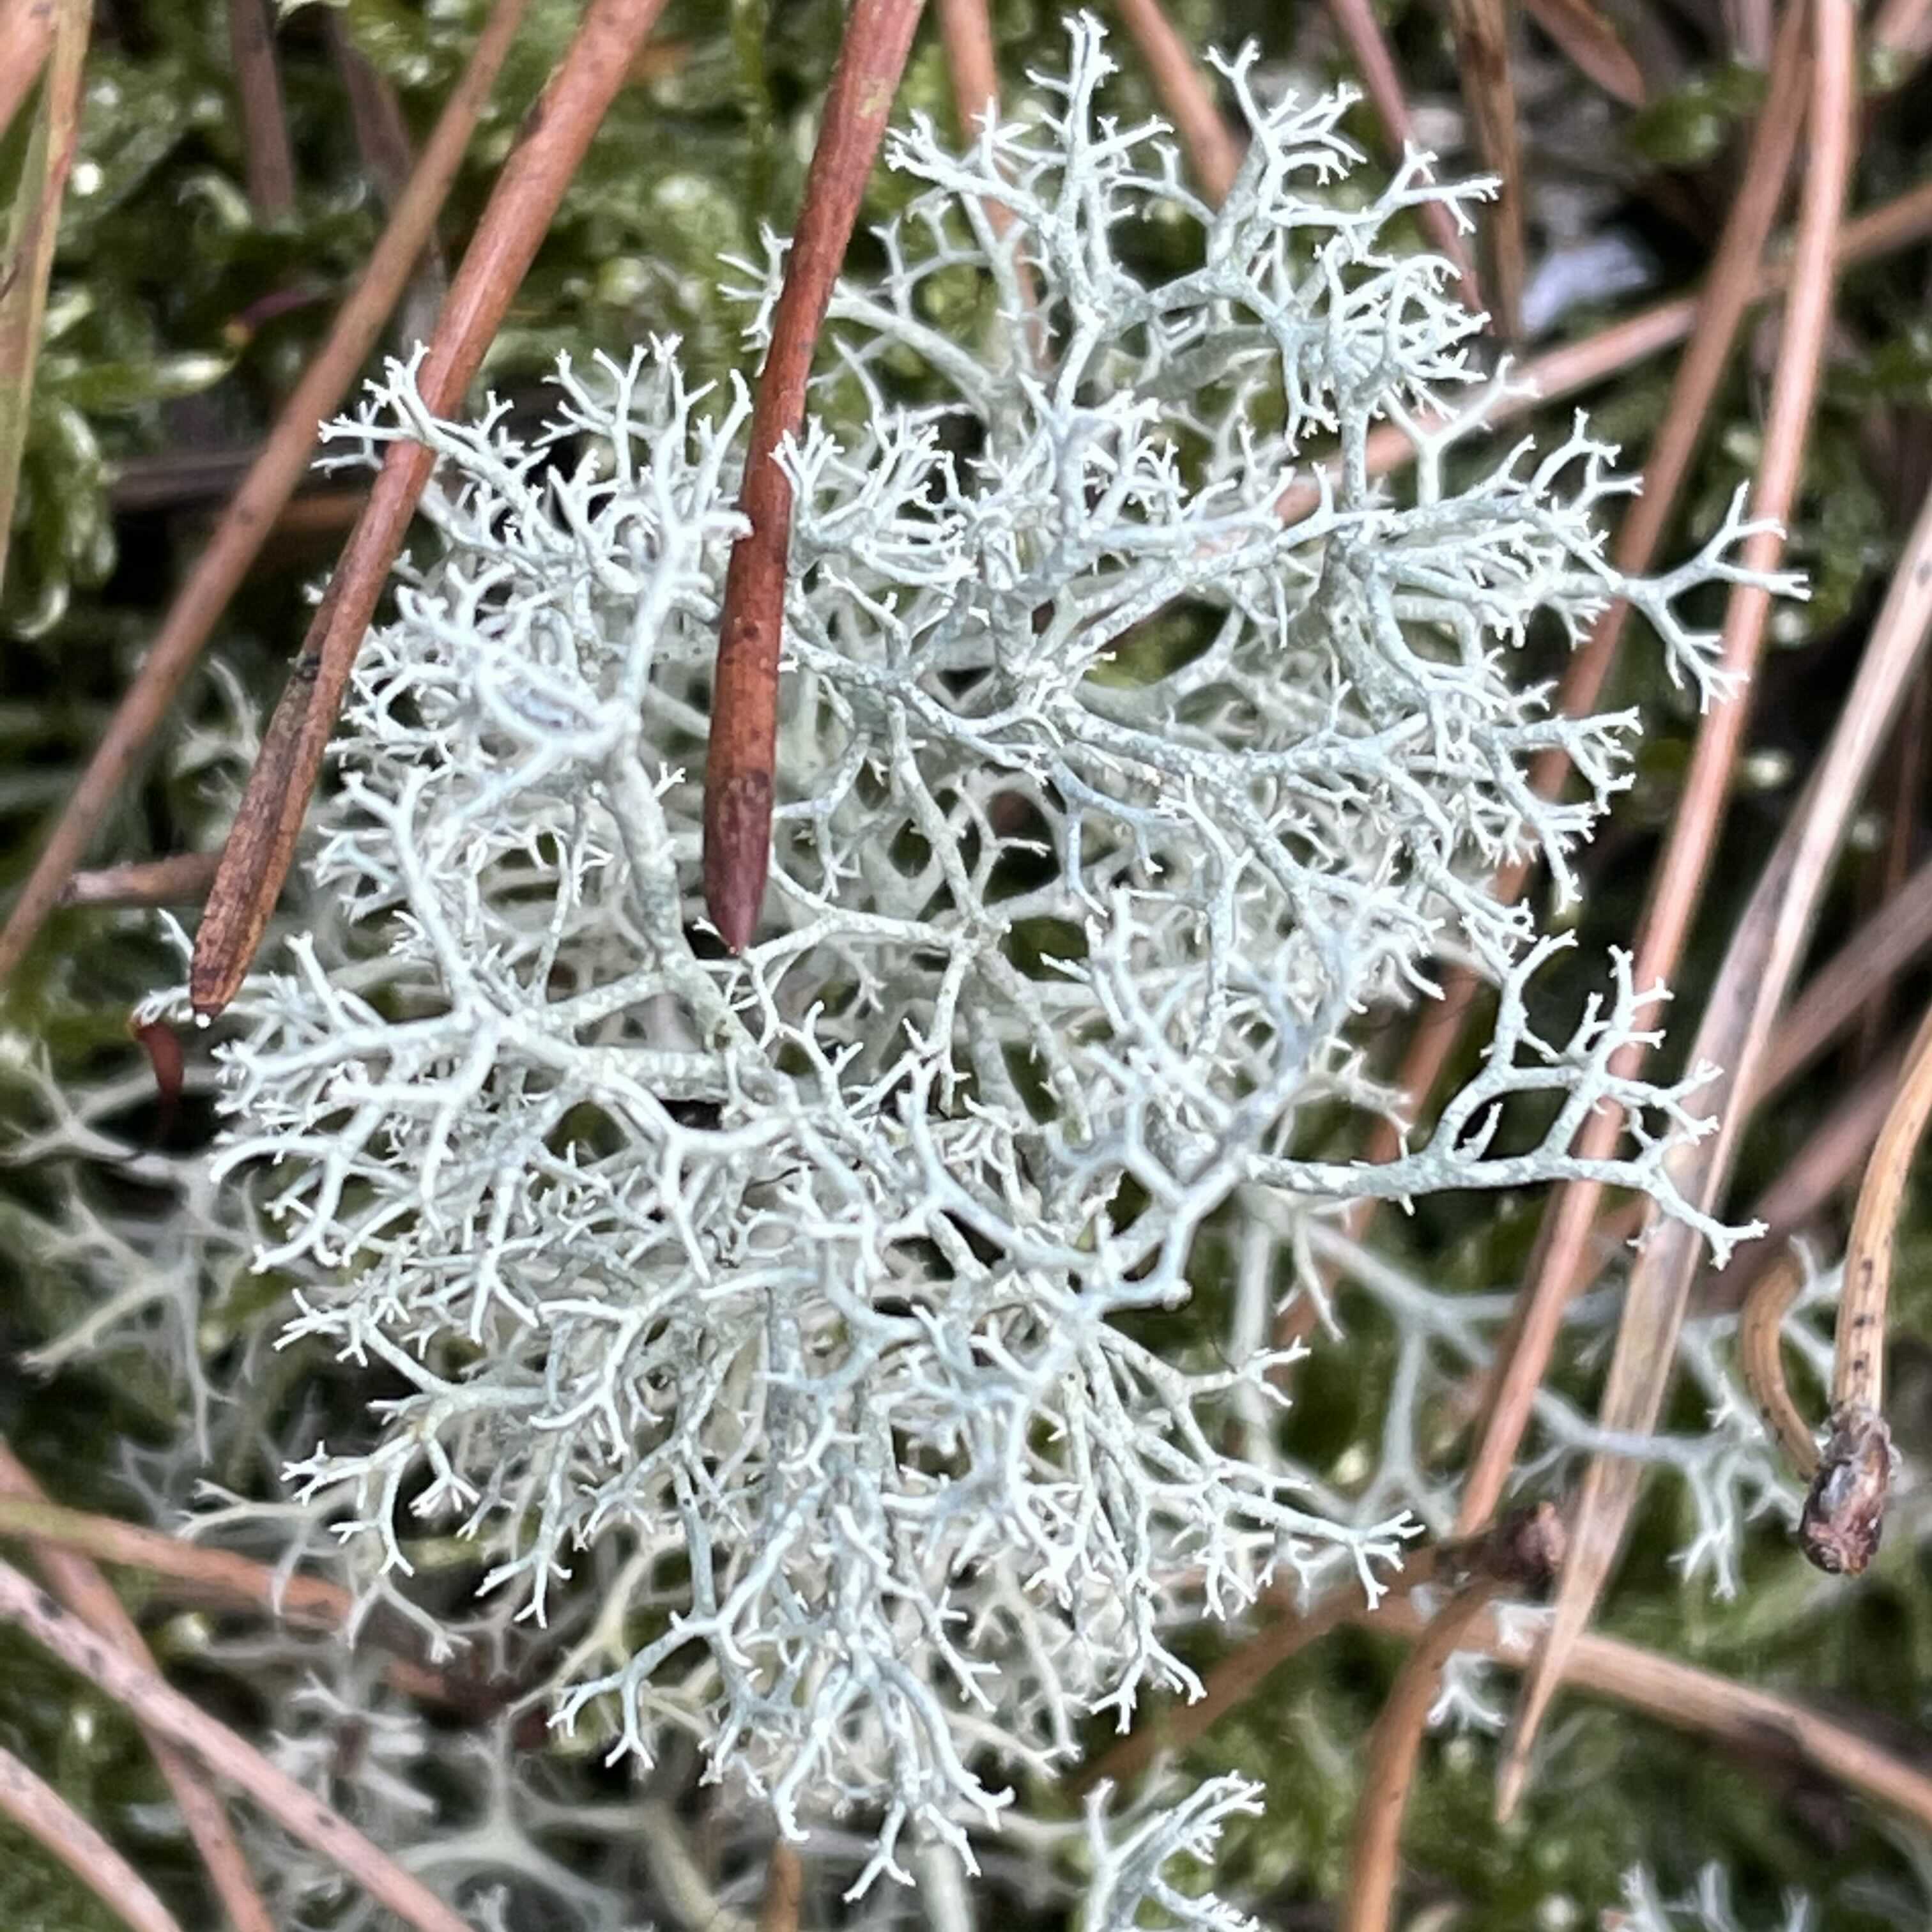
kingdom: Fungi
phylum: Ascomycota
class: Lecanoromycetes
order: Lecanorales
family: Cladoniaceae
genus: Cladonia
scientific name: Cladonia portentosa
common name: hede-rensdyrlav
